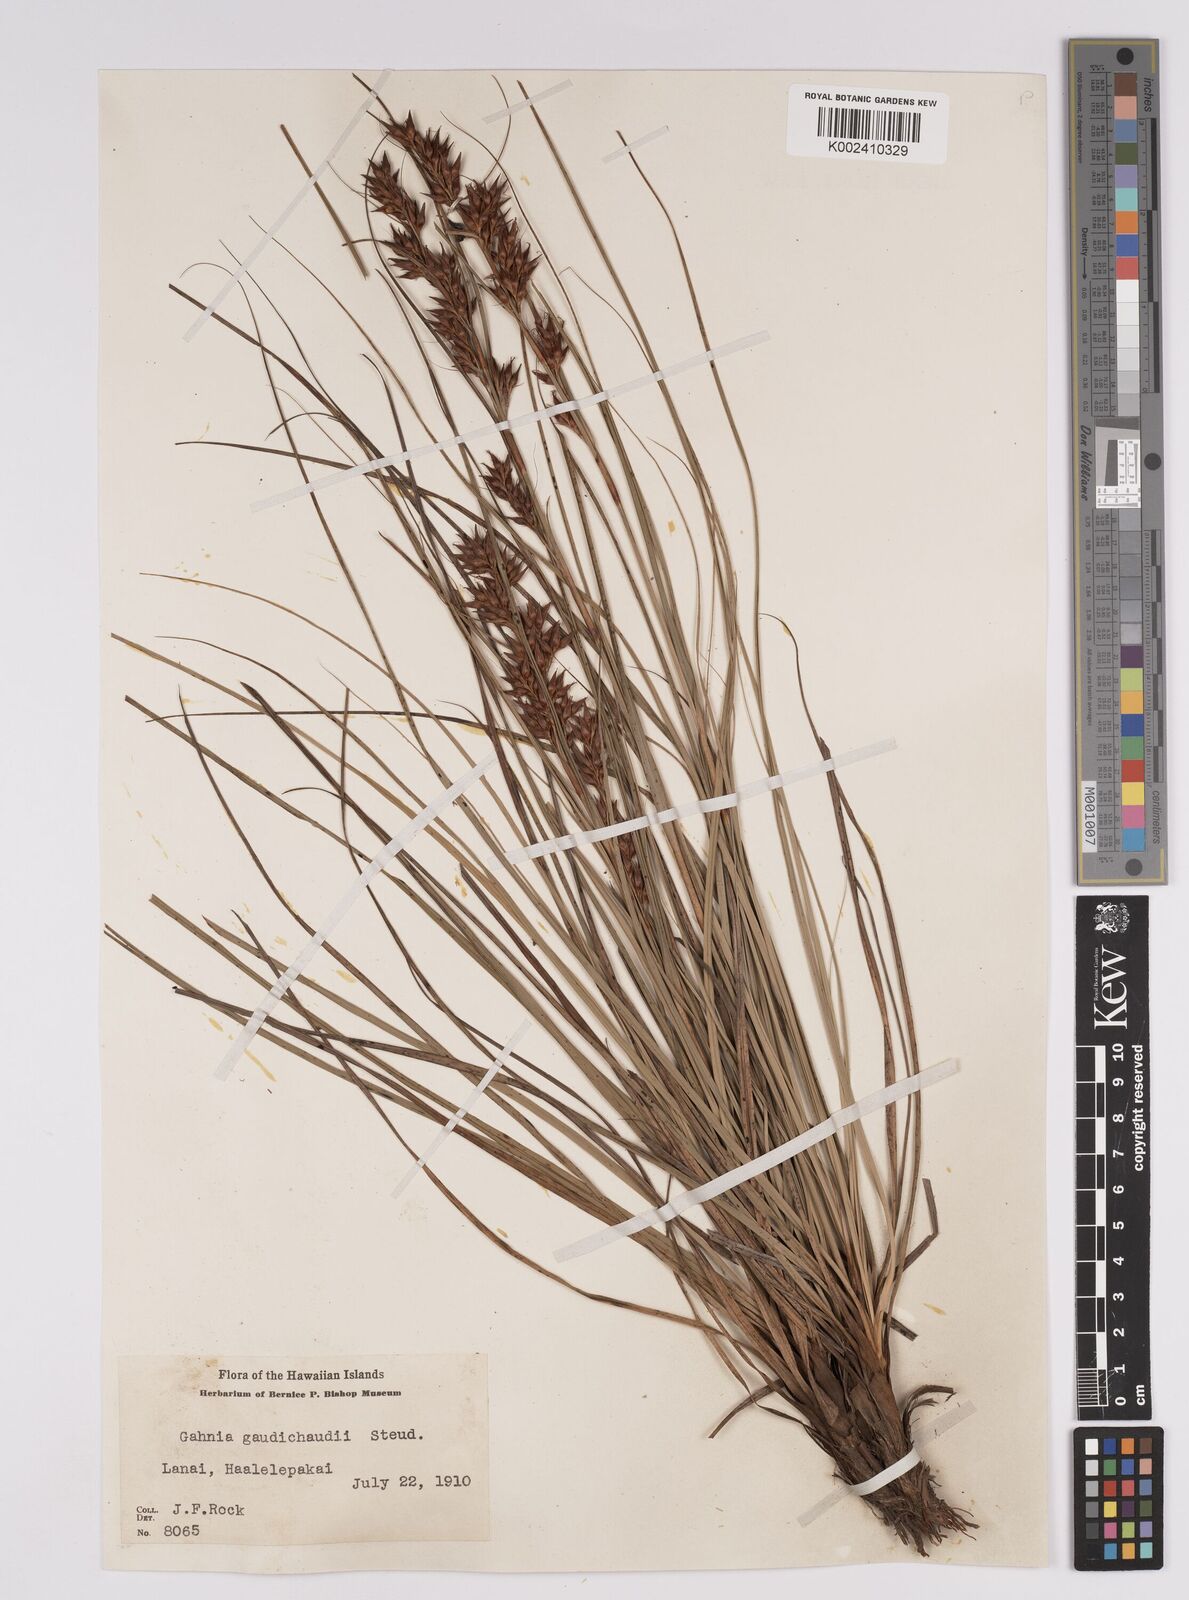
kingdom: Plantae
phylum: Tracheophyta
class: Liliopsida
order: Poales
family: Cyperaceae
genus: Morelotia
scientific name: Morelotia gahniiformis
